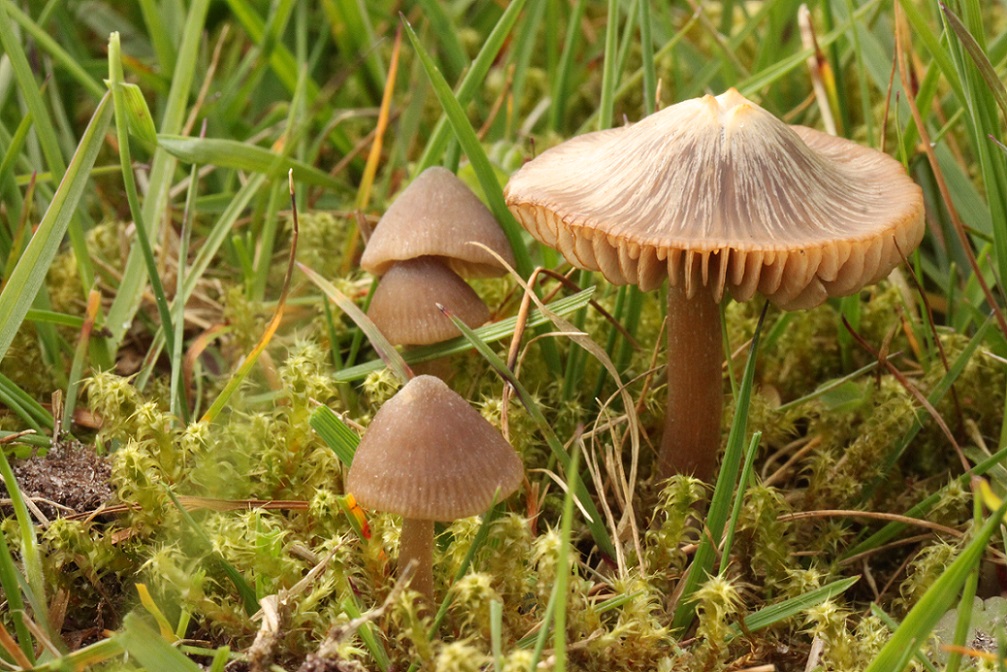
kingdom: Fungi
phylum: Basidiomycota
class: Agaricomycetes
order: Agaricales
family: Entolomataceae
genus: Entoloma
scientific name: Entoloma ventricosum
